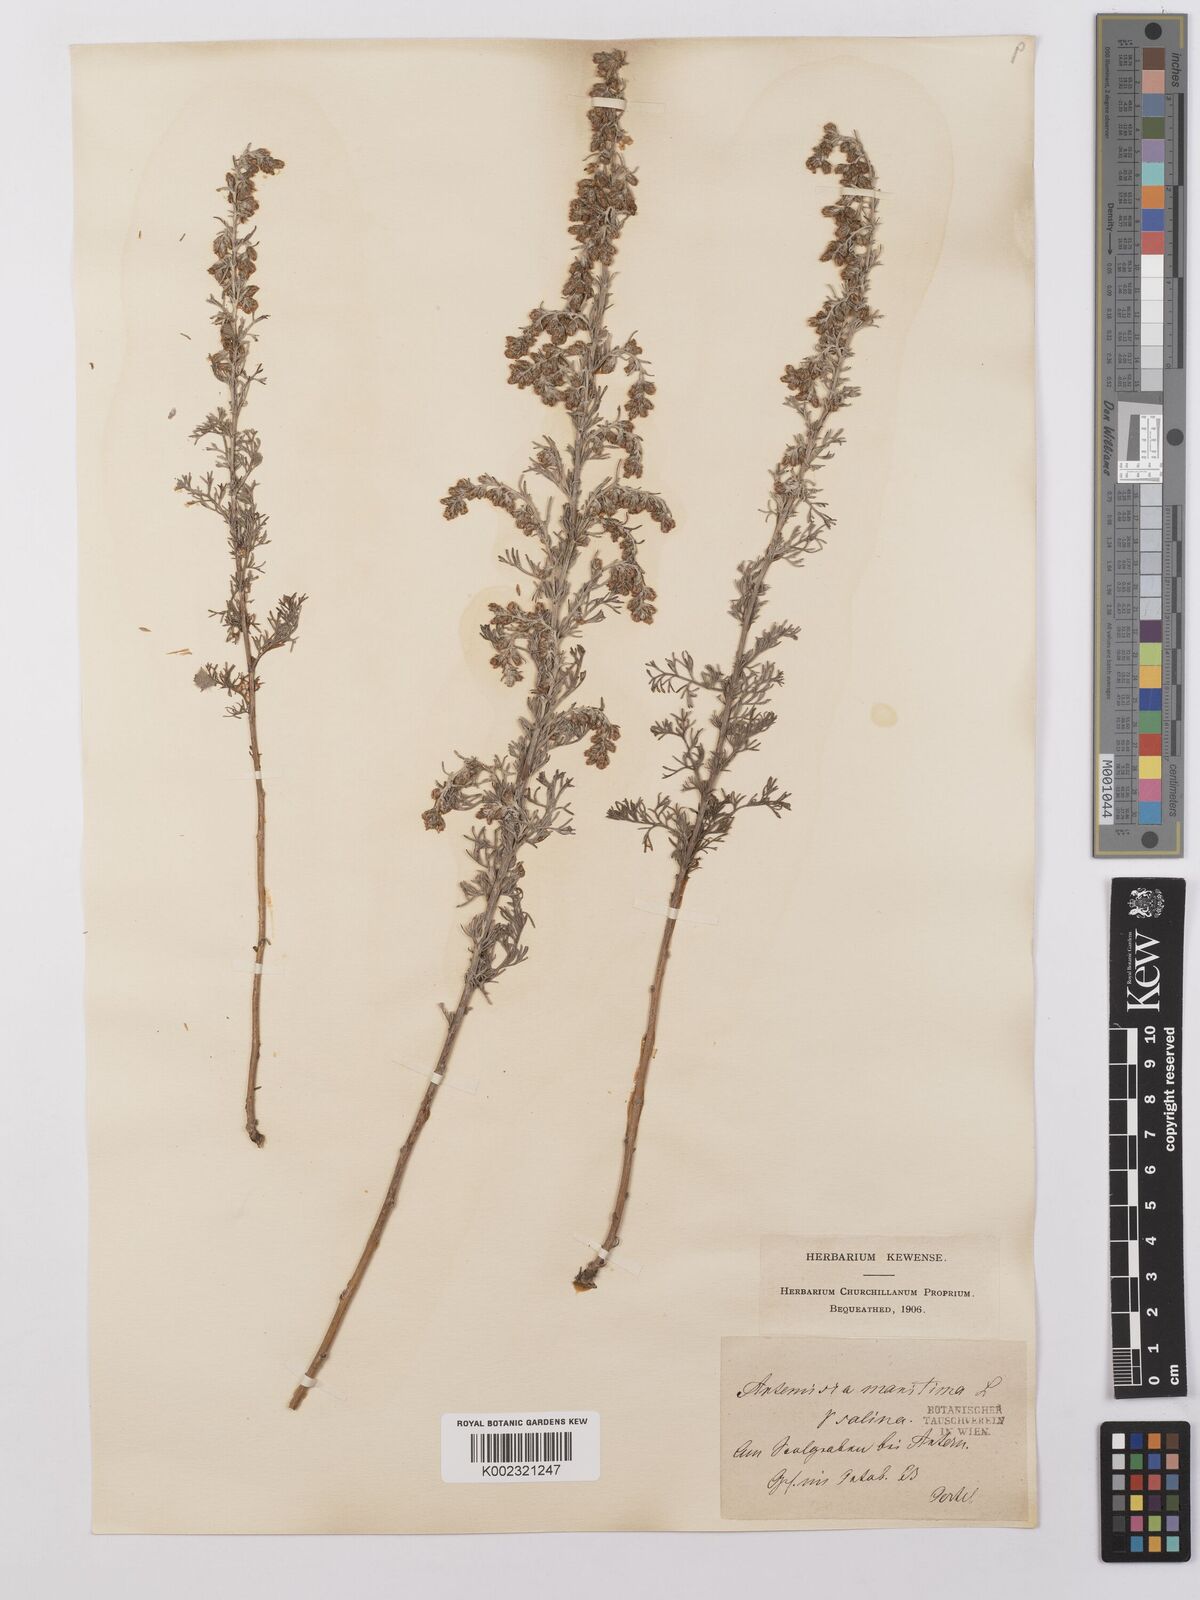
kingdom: Plantae
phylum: Tracheophyta
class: Magnoliopsida
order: Asterales
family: Asteraceae
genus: Artemisia
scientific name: Artemisia maritima
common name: Wormseed
